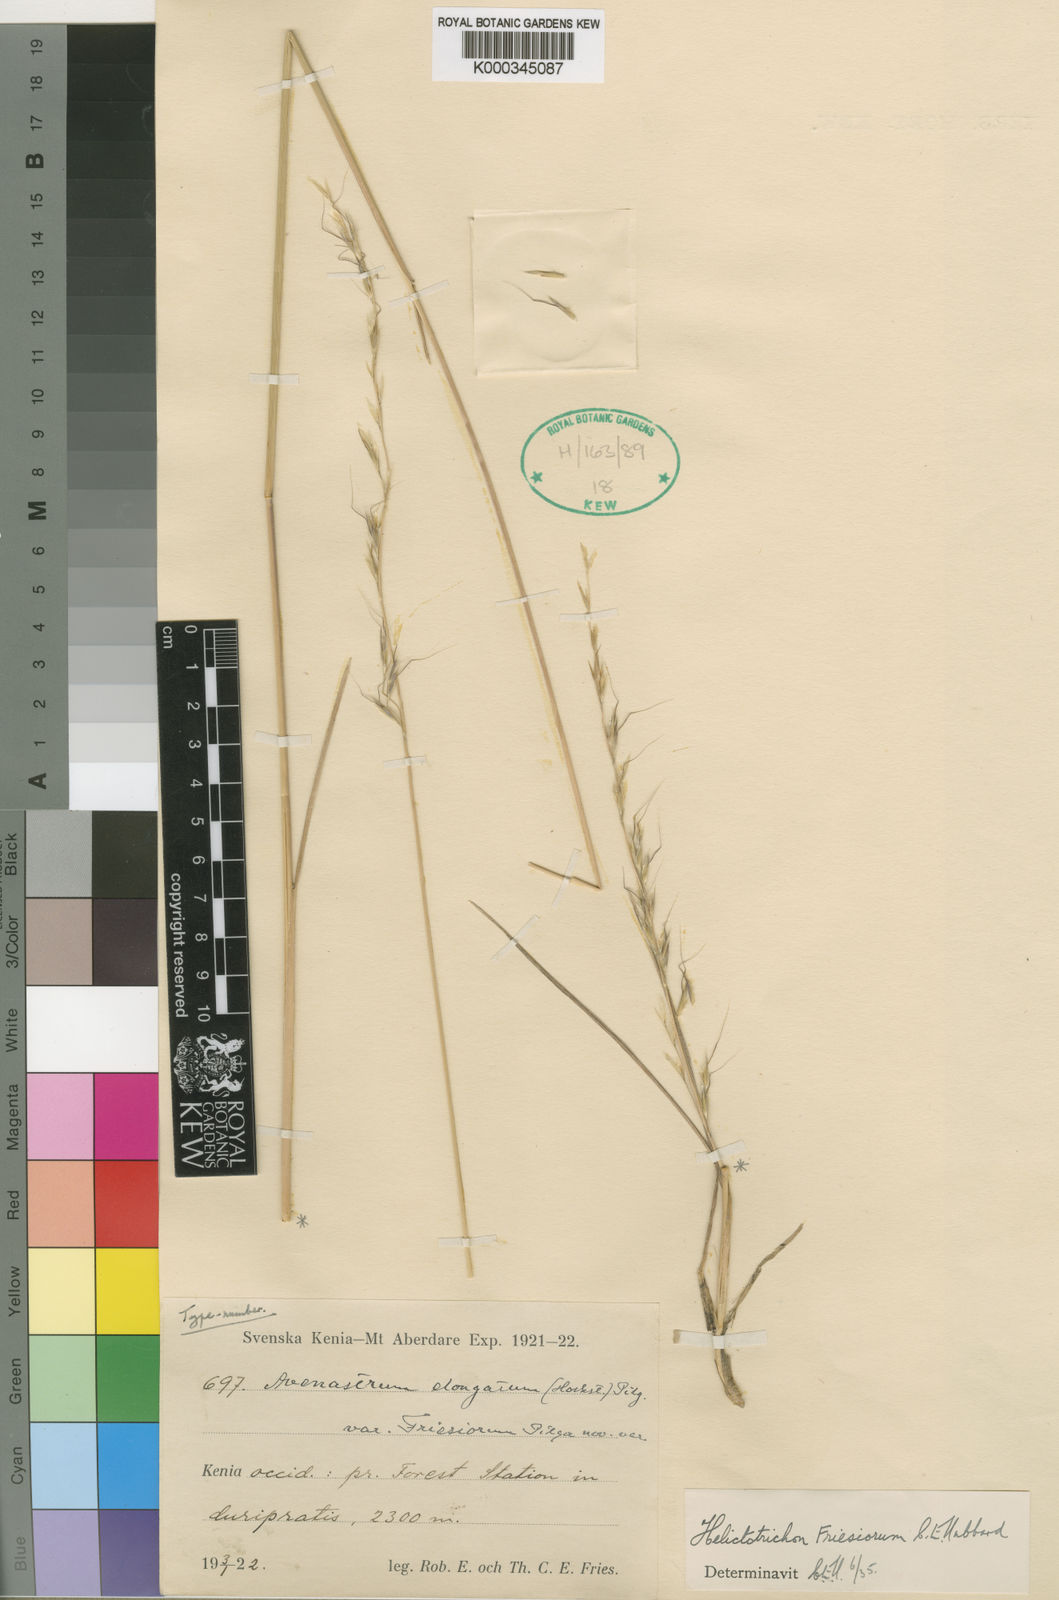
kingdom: Plantae
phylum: Tracheophyta
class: Liliopsida
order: Poales
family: Poaceae
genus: Trisetopsis
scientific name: Trisetopsis umbrosa
